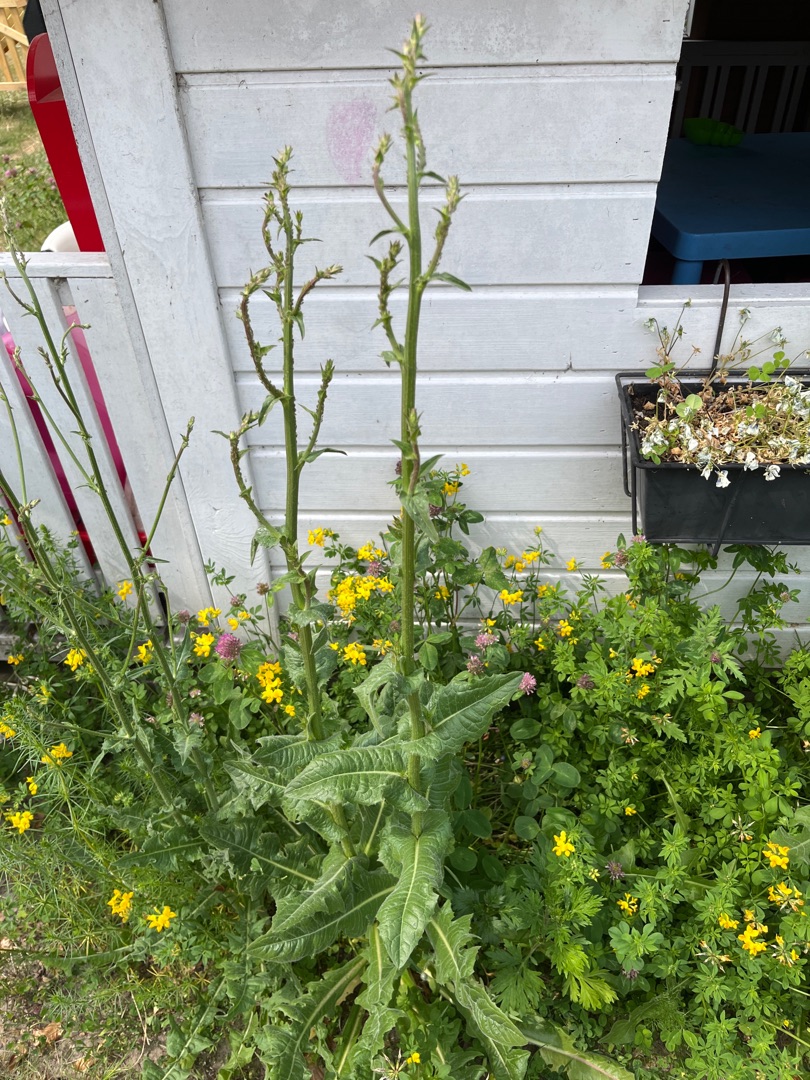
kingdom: Plantae
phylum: Tracheophyta
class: Magnoliopsida
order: Asterales
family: Asteraceae
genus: Cichorium
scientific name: Cichorium intybus
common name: Cikorie
